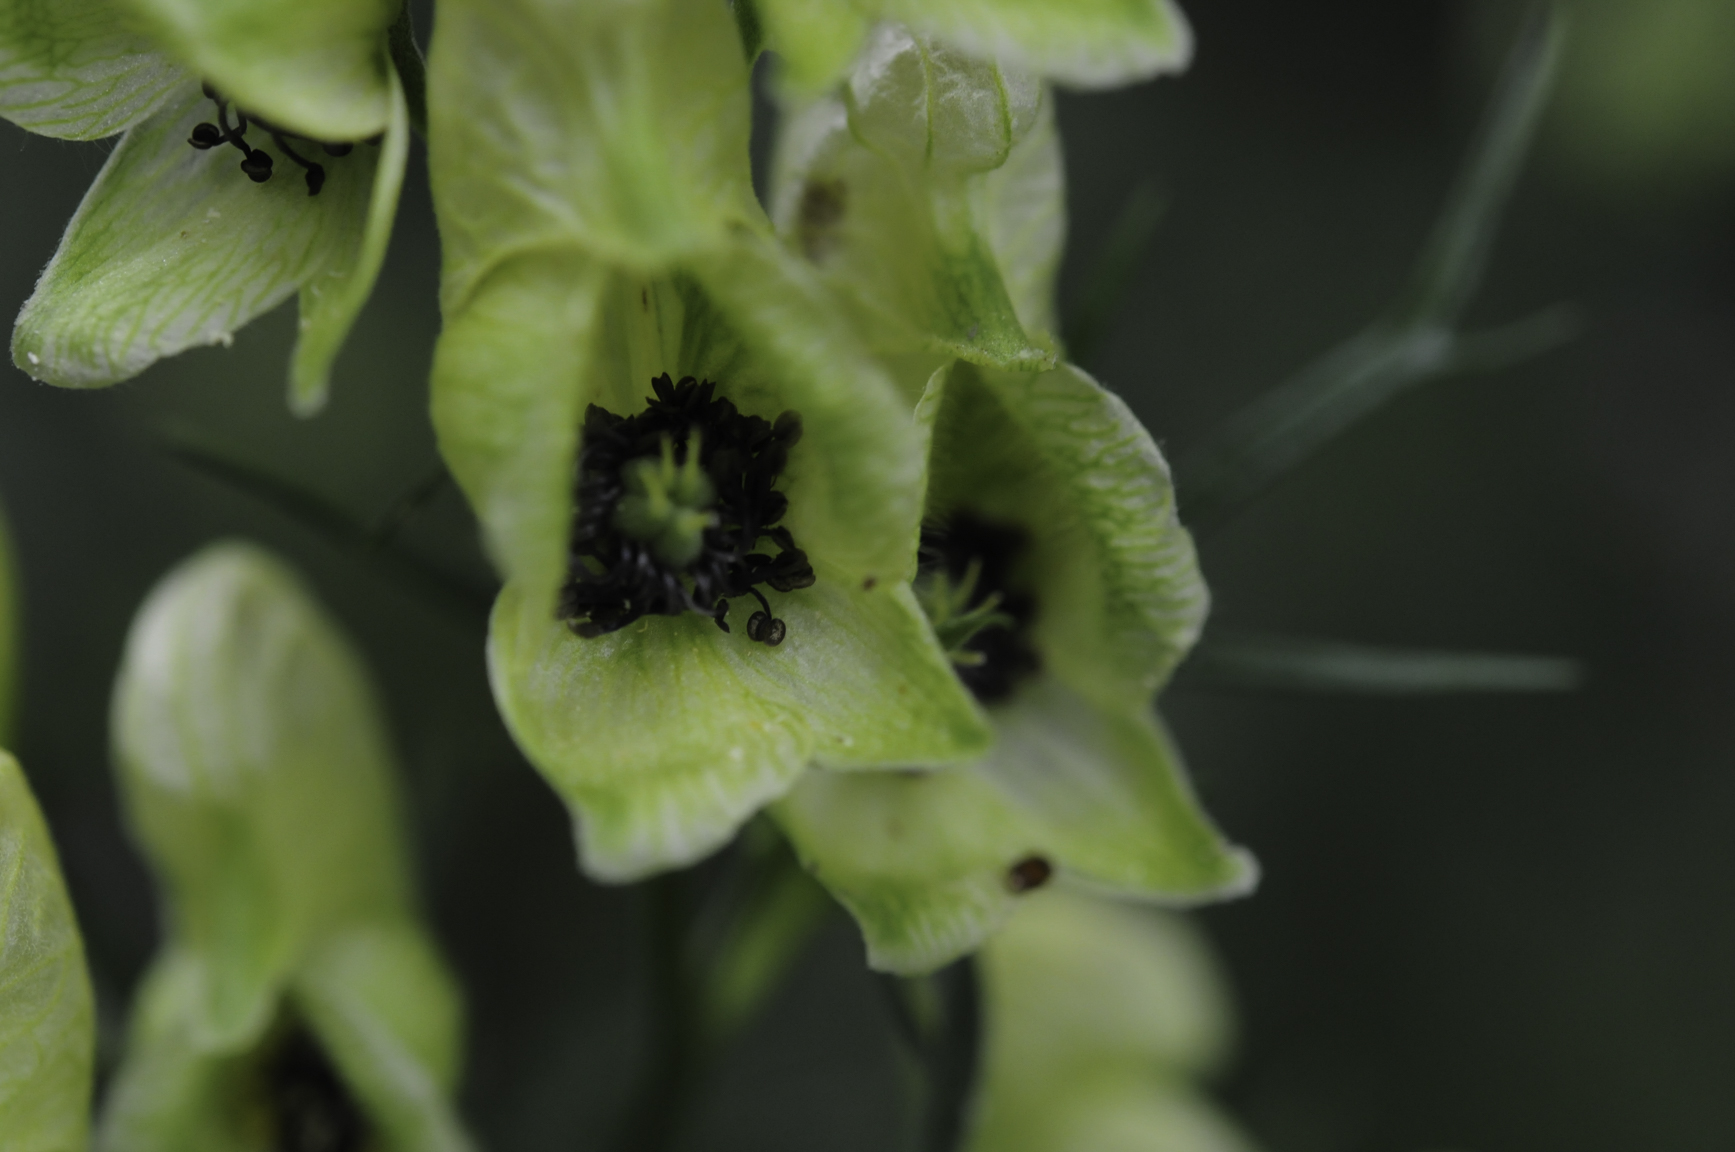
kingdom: Plantae
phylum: Tracheophyta
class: Magnoliopsida
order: Ranunculales
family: Ranunculaceae
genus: Aconitum
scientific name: Aconitum anthora
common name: Yellow monkshood
